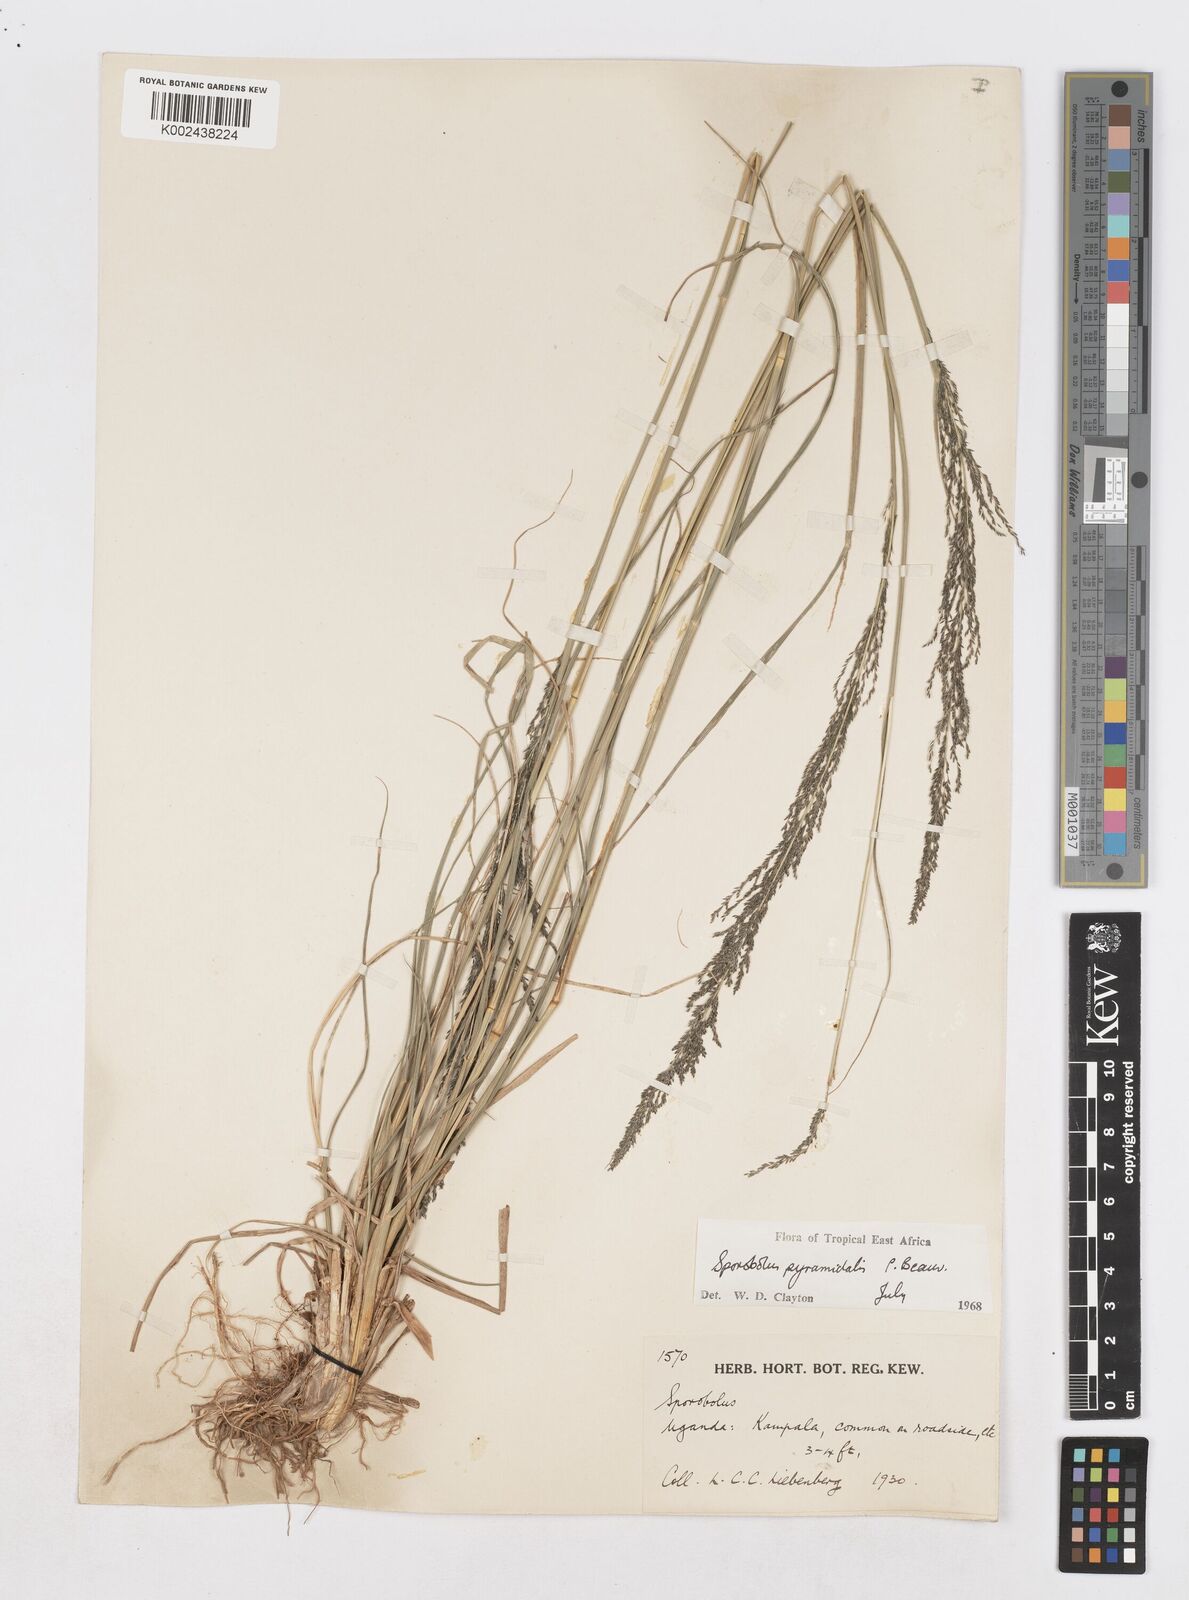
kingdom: Plantae
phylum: Tracheophyta
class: Liliopsida
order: Poales
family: Poaceae
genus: Sporobolus
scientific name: Sporobolus pyramidalis
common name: West indian dropseed
